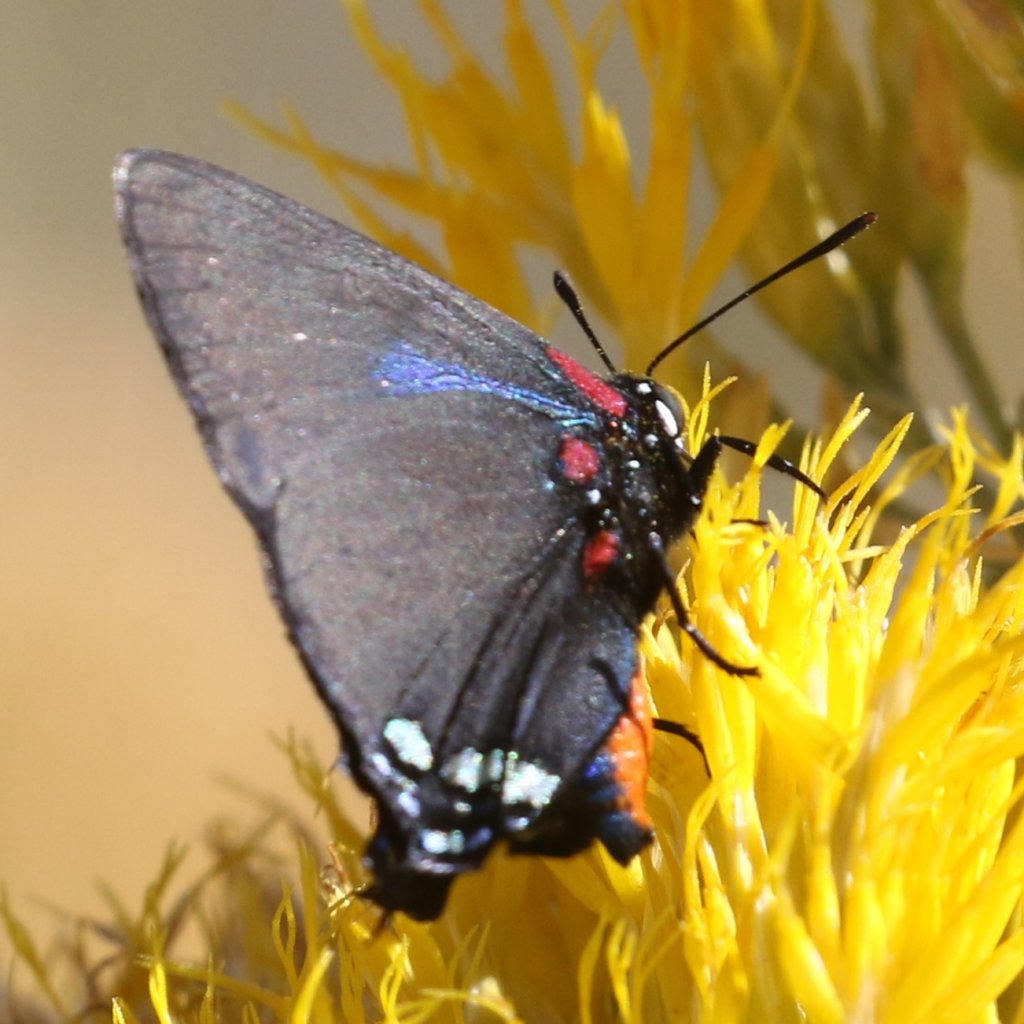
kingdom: Animalia
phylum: Arthropoda
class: Insecta
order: Lepidoptera
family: Lycaenidae
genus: Atlides
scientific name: Atlides halesus
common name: Great Purple Hairstreak
